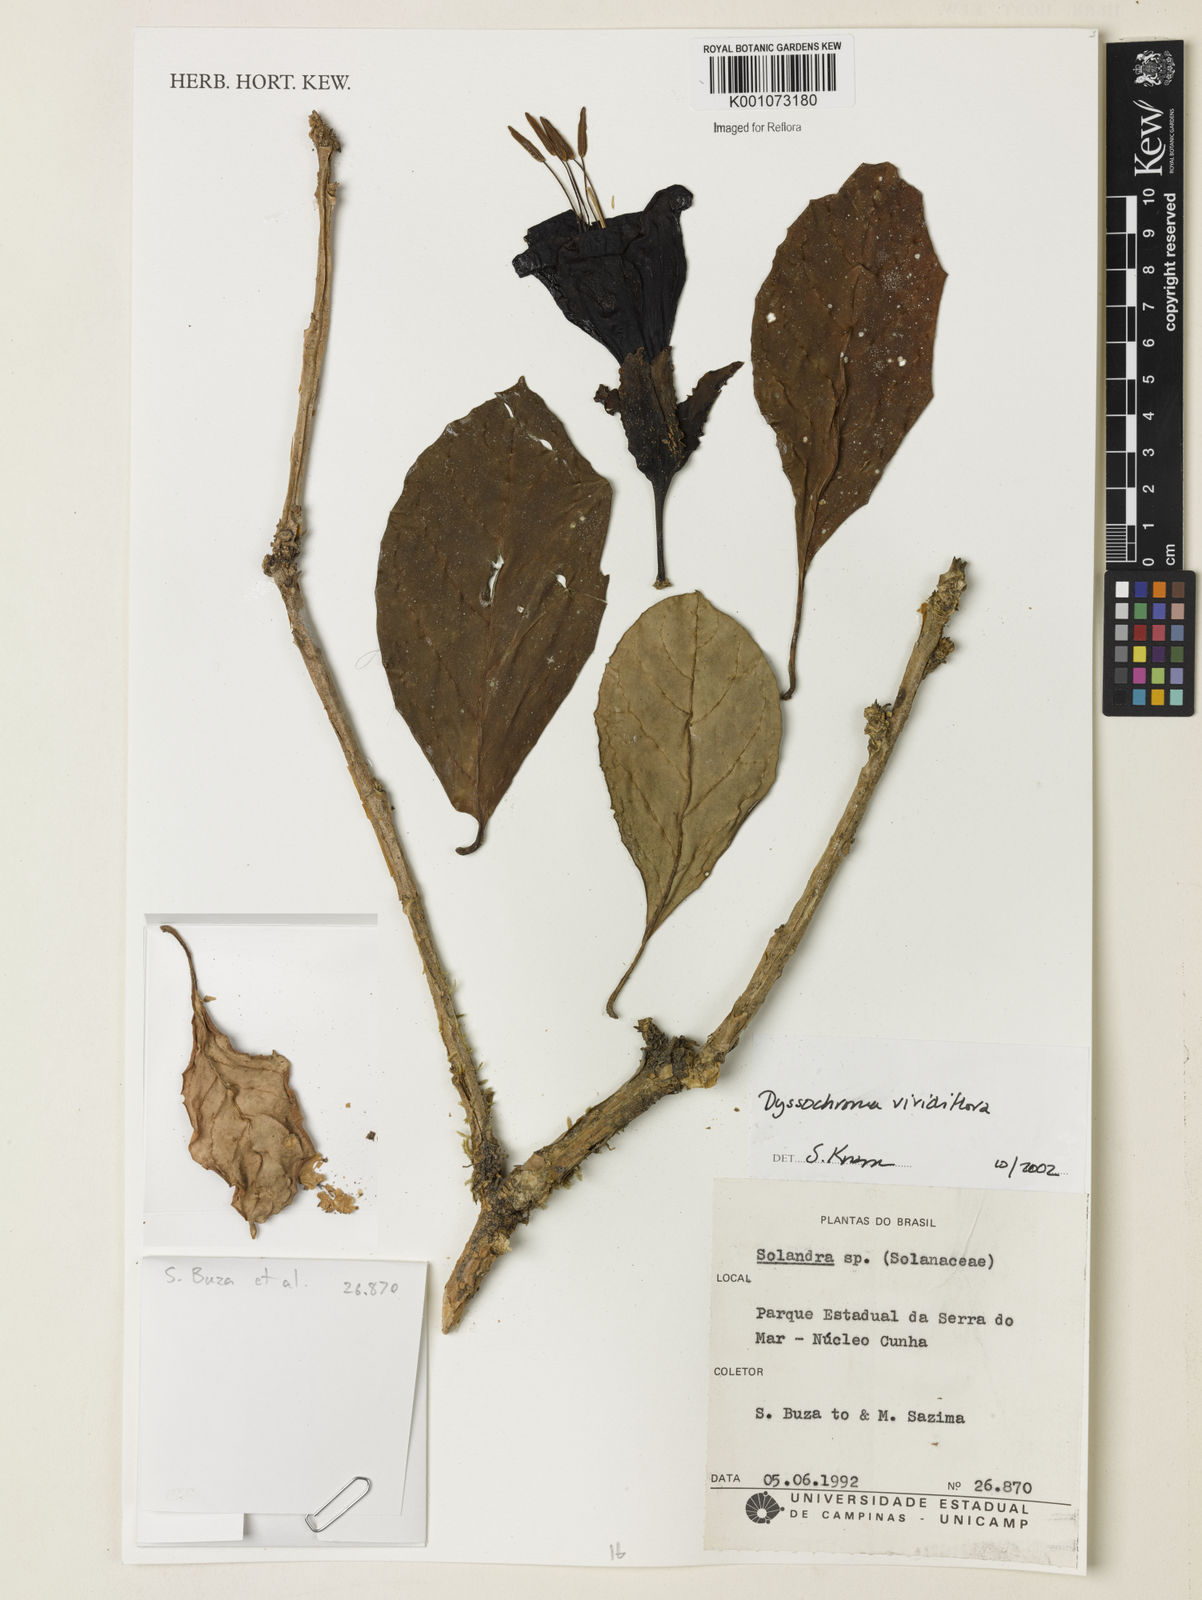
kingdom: Plantae
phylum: Tracheophyta
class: Magnoliopsida
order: Solanales
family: Solanaceae
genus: Dyssochroma
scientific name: Dyssochroma viridiflorum
